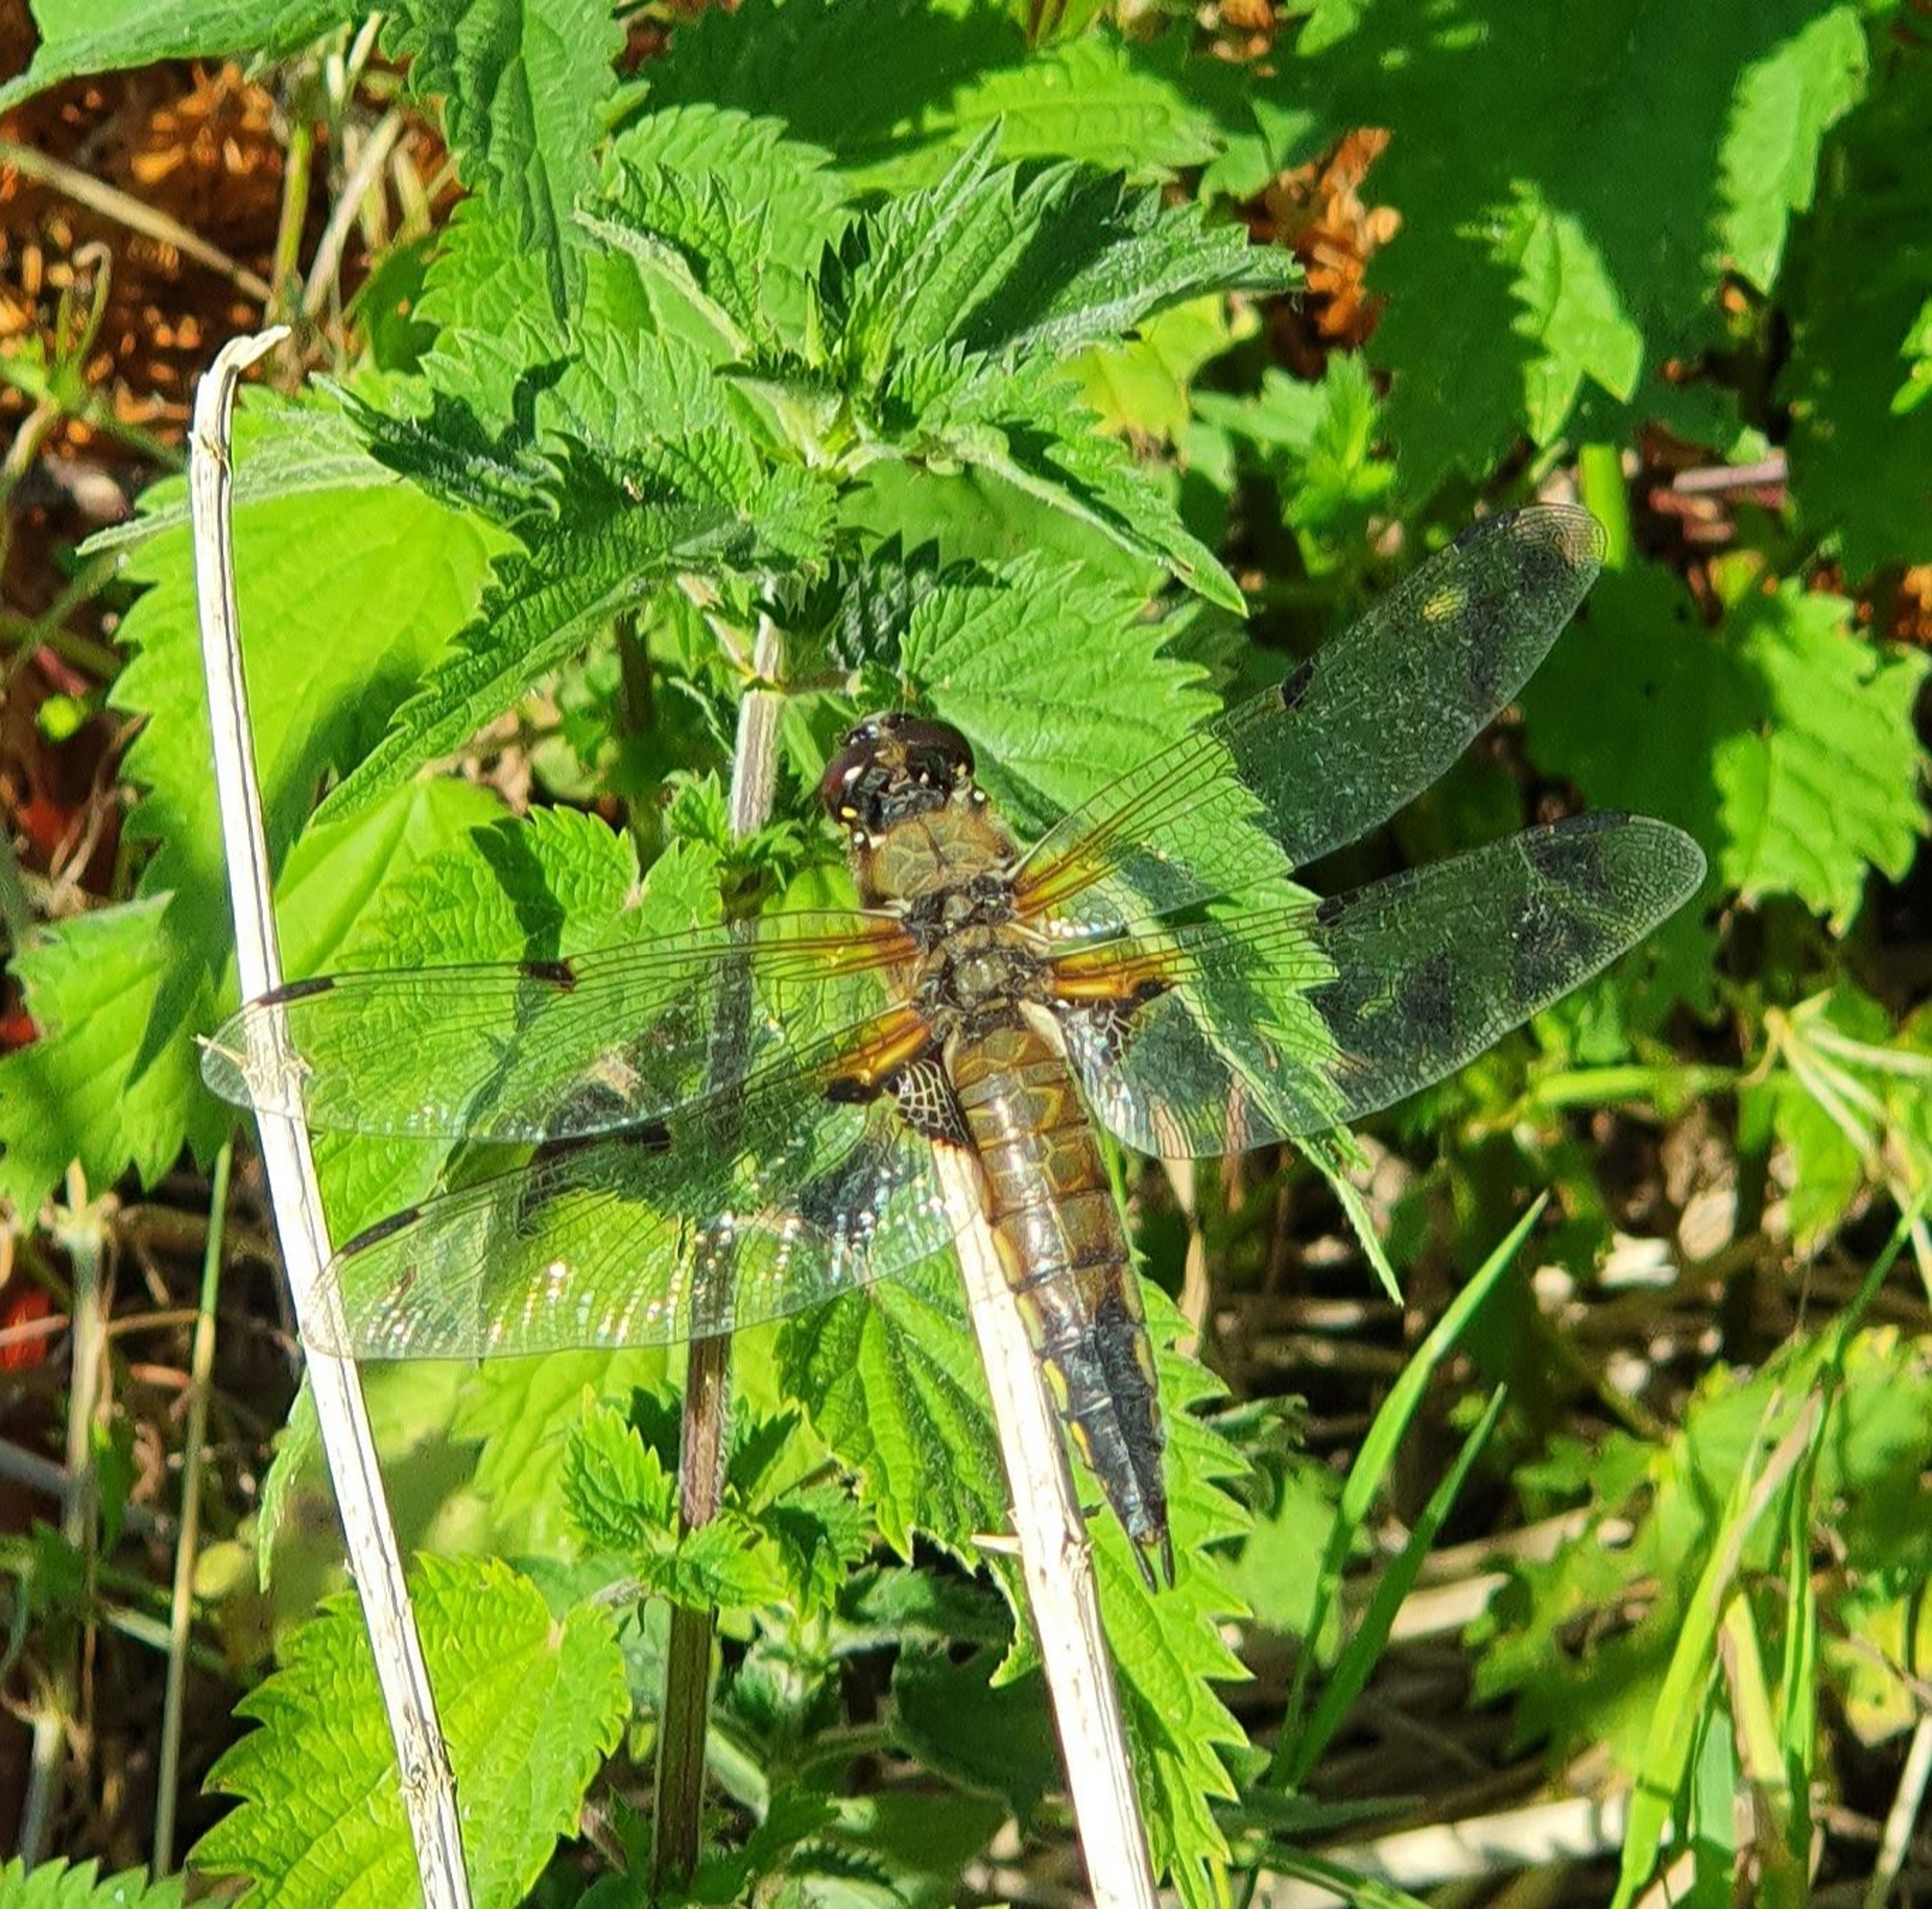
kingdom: Animalia
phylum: Arthropoda
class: Insecta
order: Odonata
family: Libellulidae
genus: Libellula
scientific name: Libellula quadrimaculata
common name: Fireplettet libel
